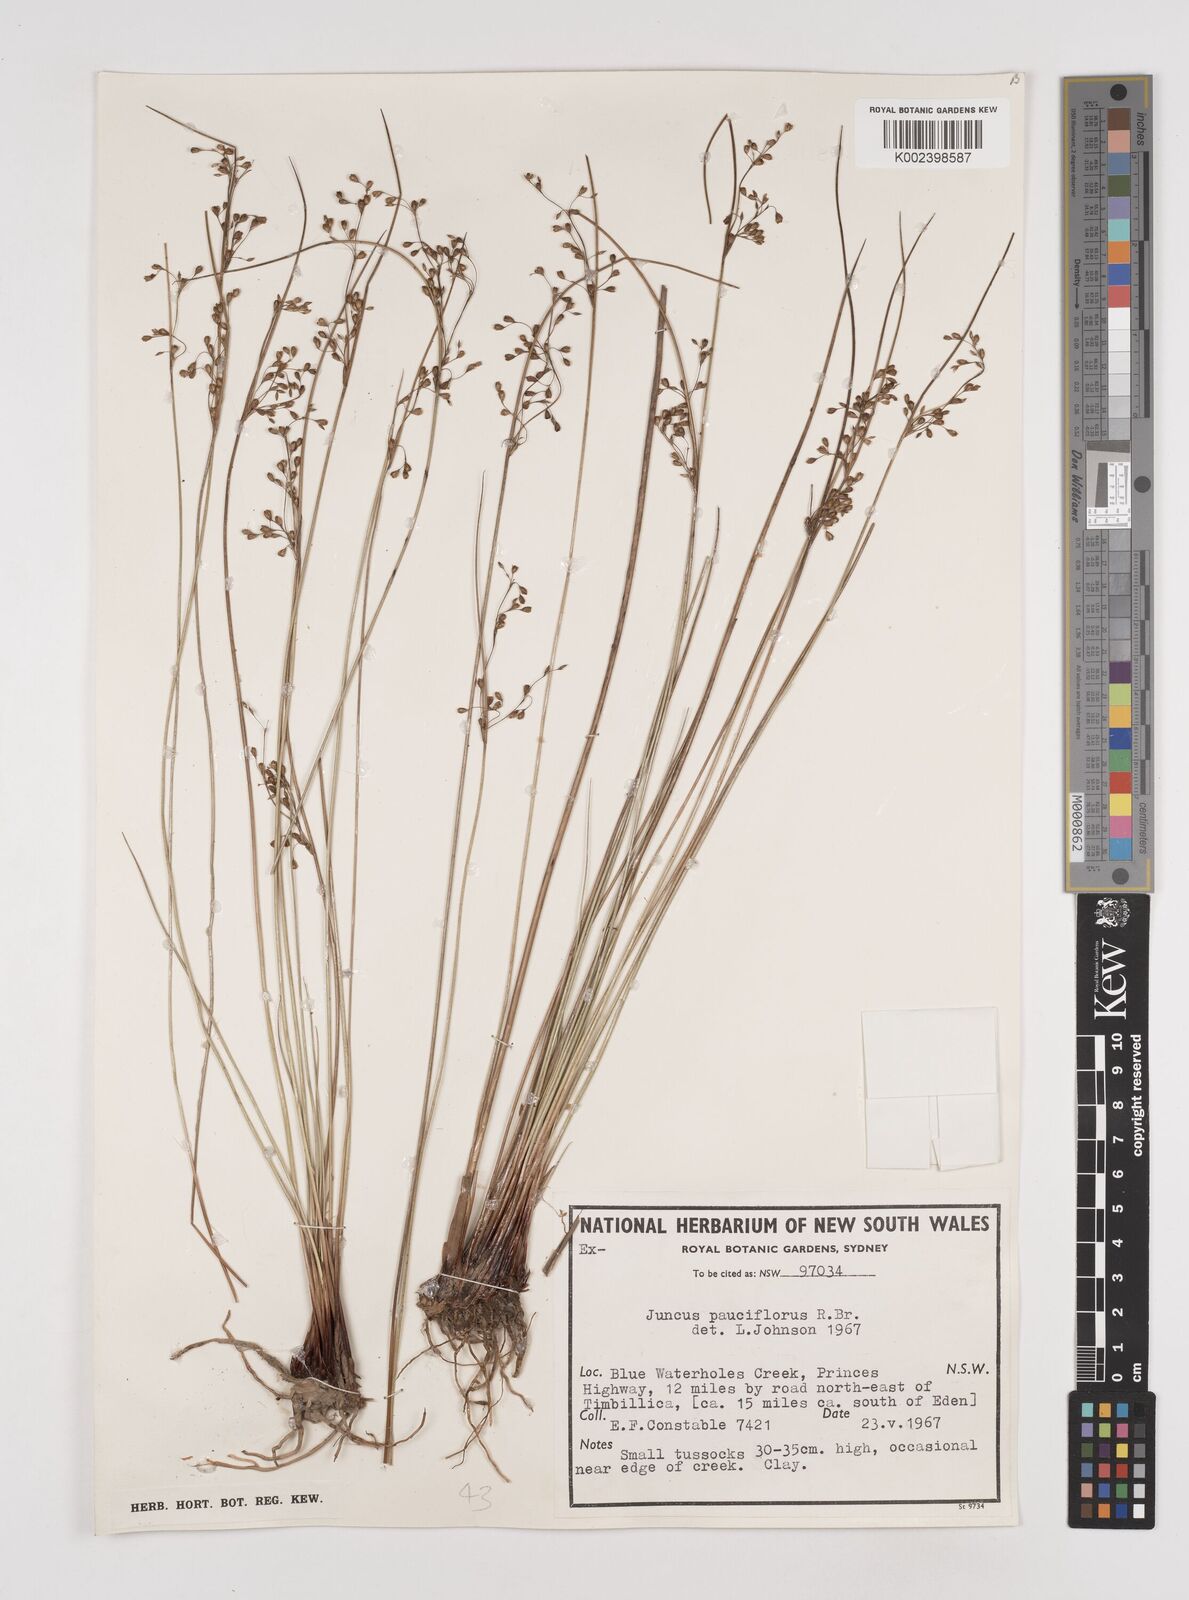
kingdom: Plantae
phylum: Tracheophyta
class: Liliopsida
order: Poales
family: Juncaceae
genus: Juncus
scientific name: Juncus pauciflorus
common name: Loose-flowered rush
